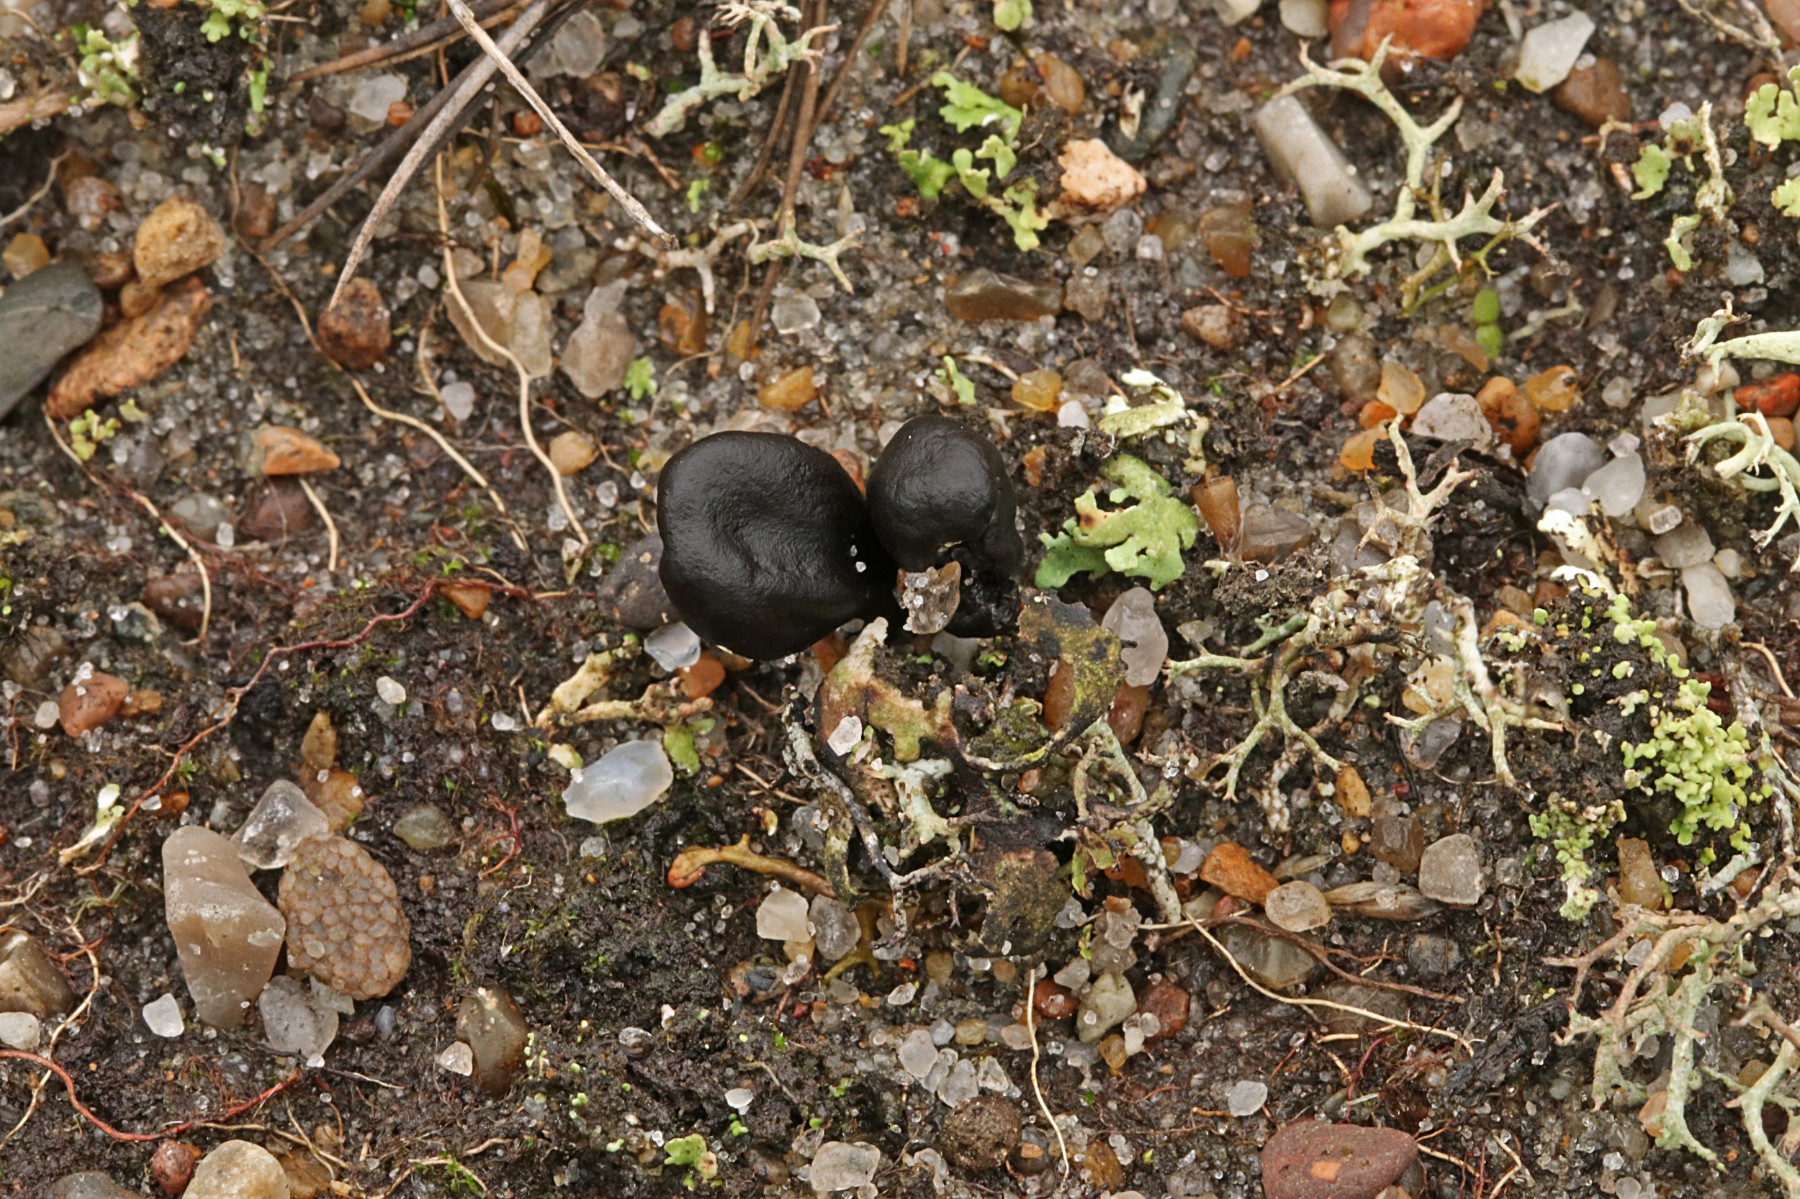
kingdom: Fungi
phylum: Ascomycota
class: Geoglossomycetes
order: Geoglossales
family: Geoglossaceae
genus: Sabuloglossum
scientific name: Sabuloglossum arenarium
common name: klit-jordtunge
